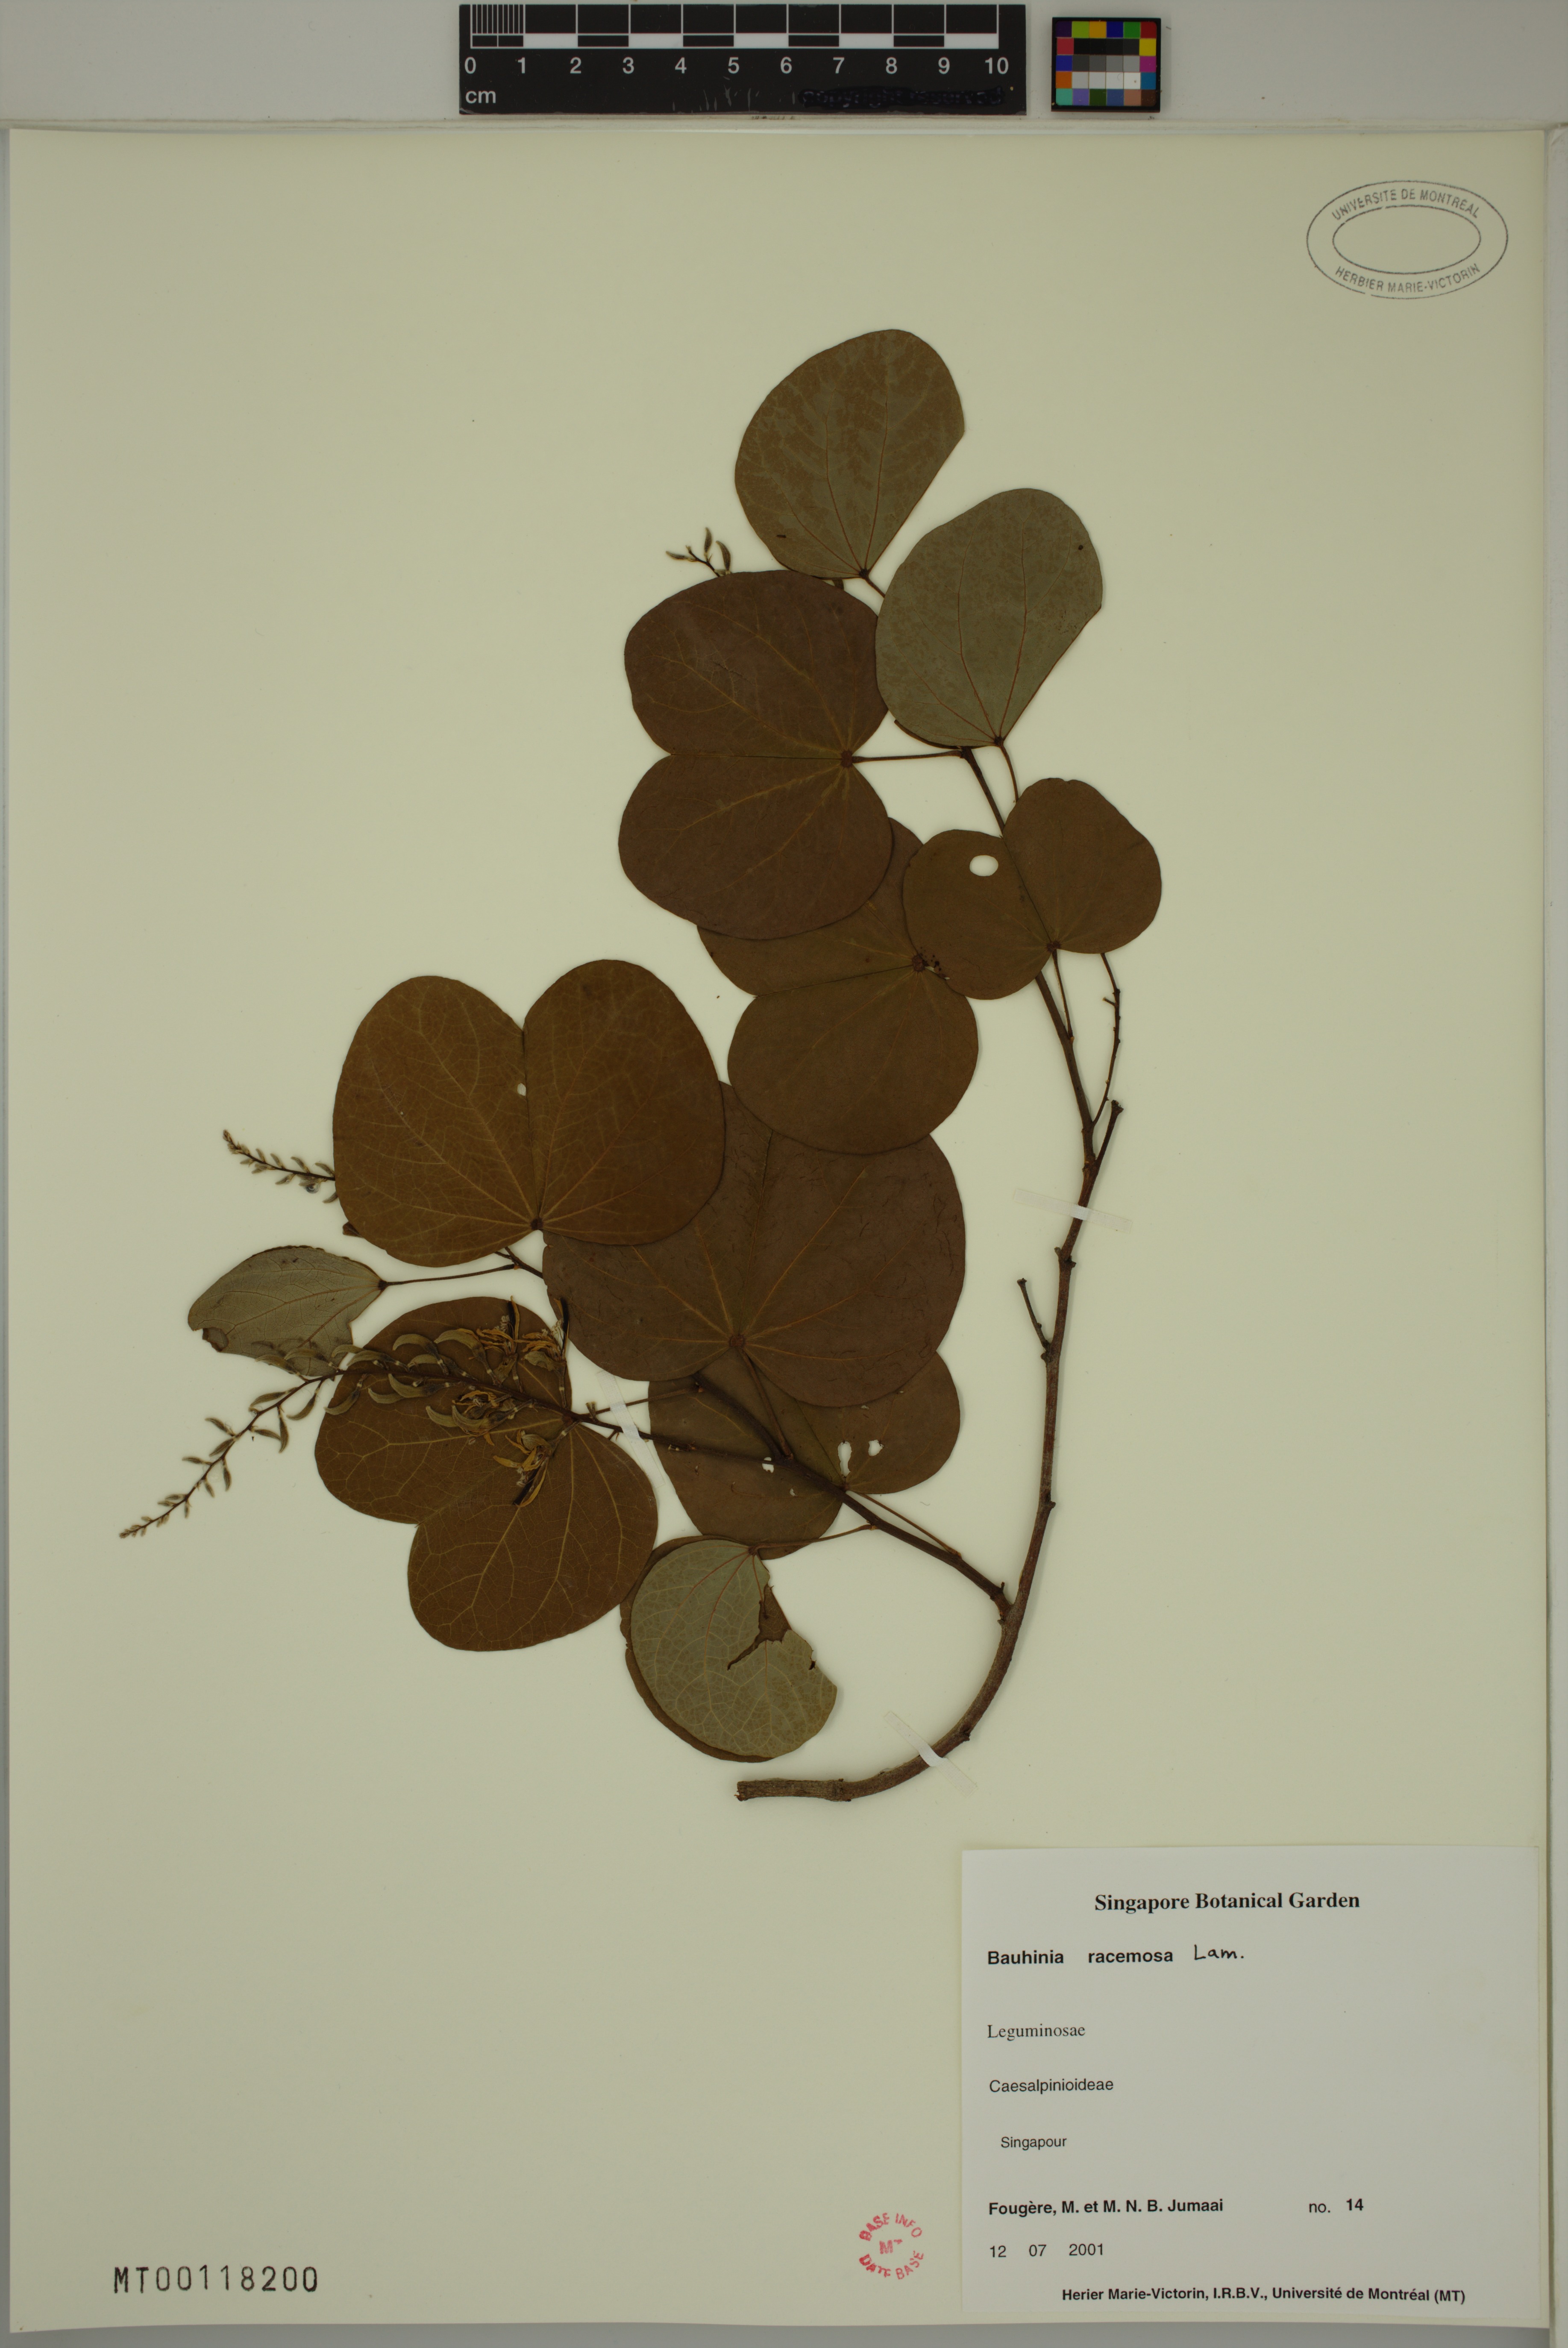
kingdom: Plantae
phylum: Tracheophyta
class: Magnoliopsida
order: Fabales
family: Fabaceae
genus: Bauhinia
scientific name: Bauhinia racemosa
